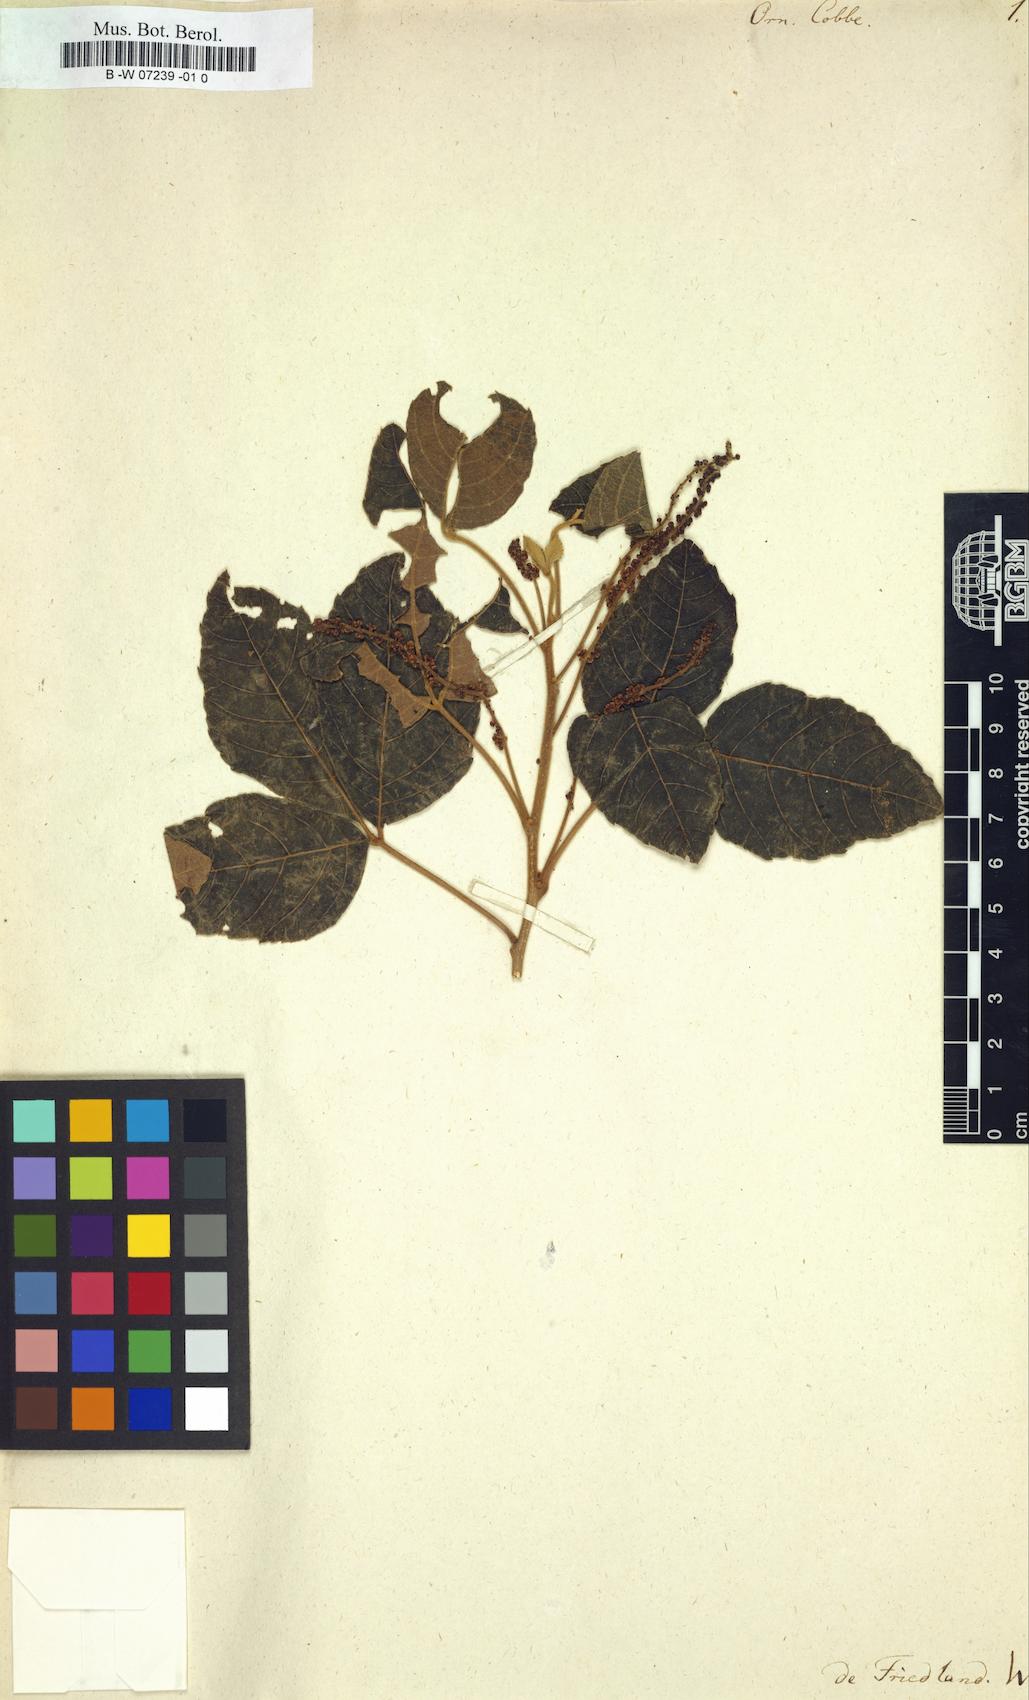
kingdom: Plantae
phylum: Tracheophyta
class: Magnoliopsida
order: Sapindales
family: Sapindaceae
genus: Allophylus
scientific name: Allophylus cobbe
